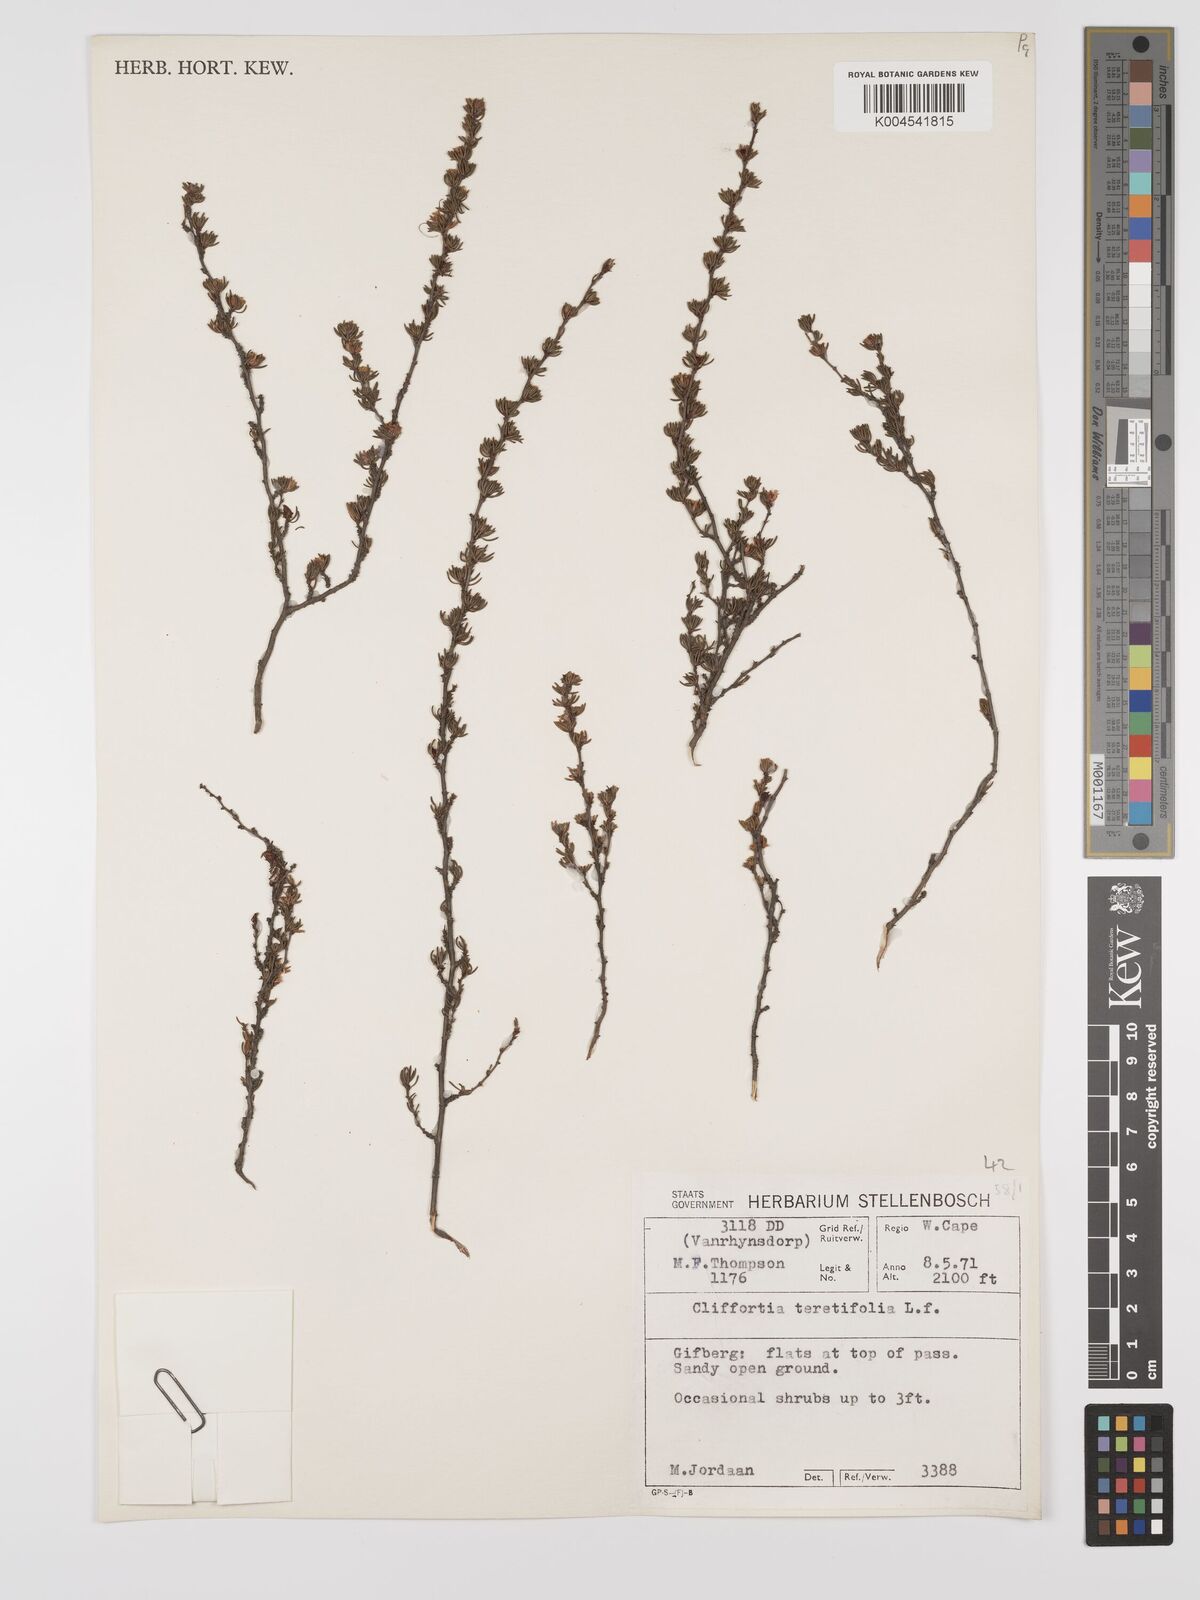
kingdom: Plantae
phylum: Tracheophyta
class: Magnoliopsida
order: Rosales
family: Rosaceae
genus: Cliffortia
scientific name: Cliffortia teretifolia
